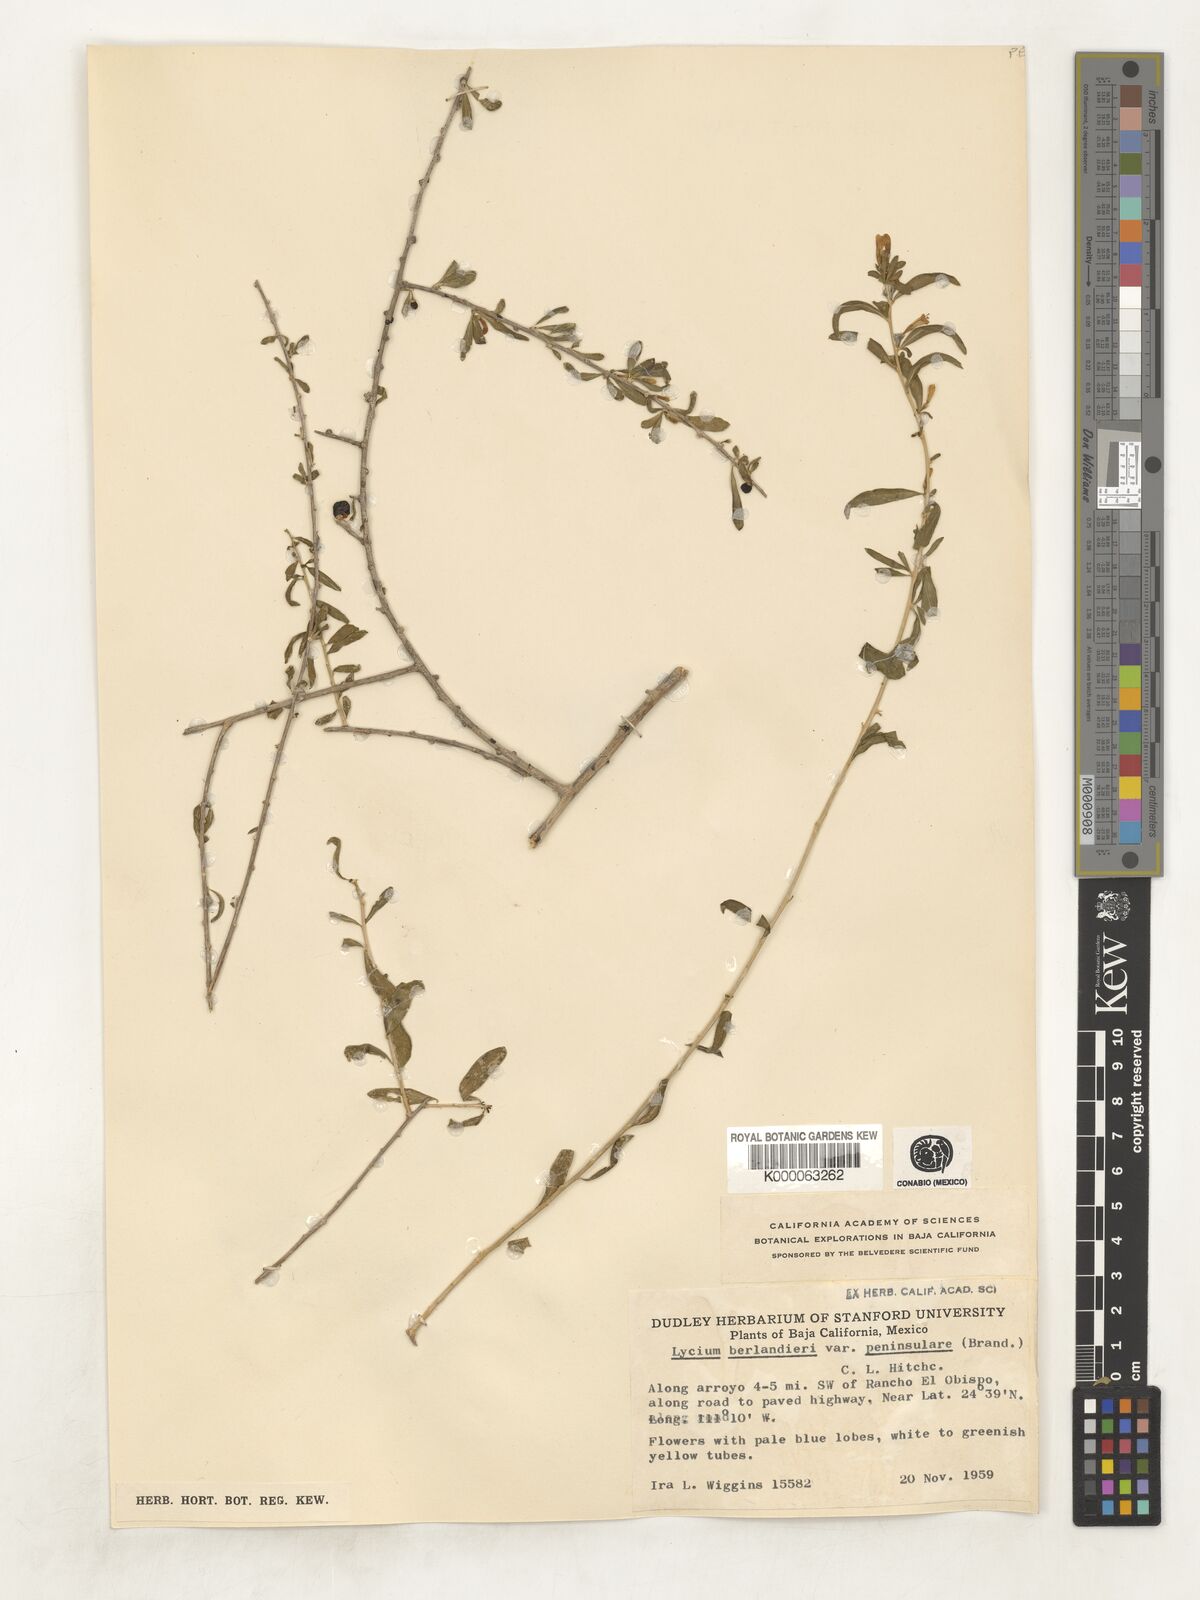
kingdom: Plantae
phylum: Tracheophyta
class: Magnoliopsida
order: Solanales
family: Solanaceae
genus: Lycium
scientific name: Lycium berlandieri
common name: Berlandier wolfberry
